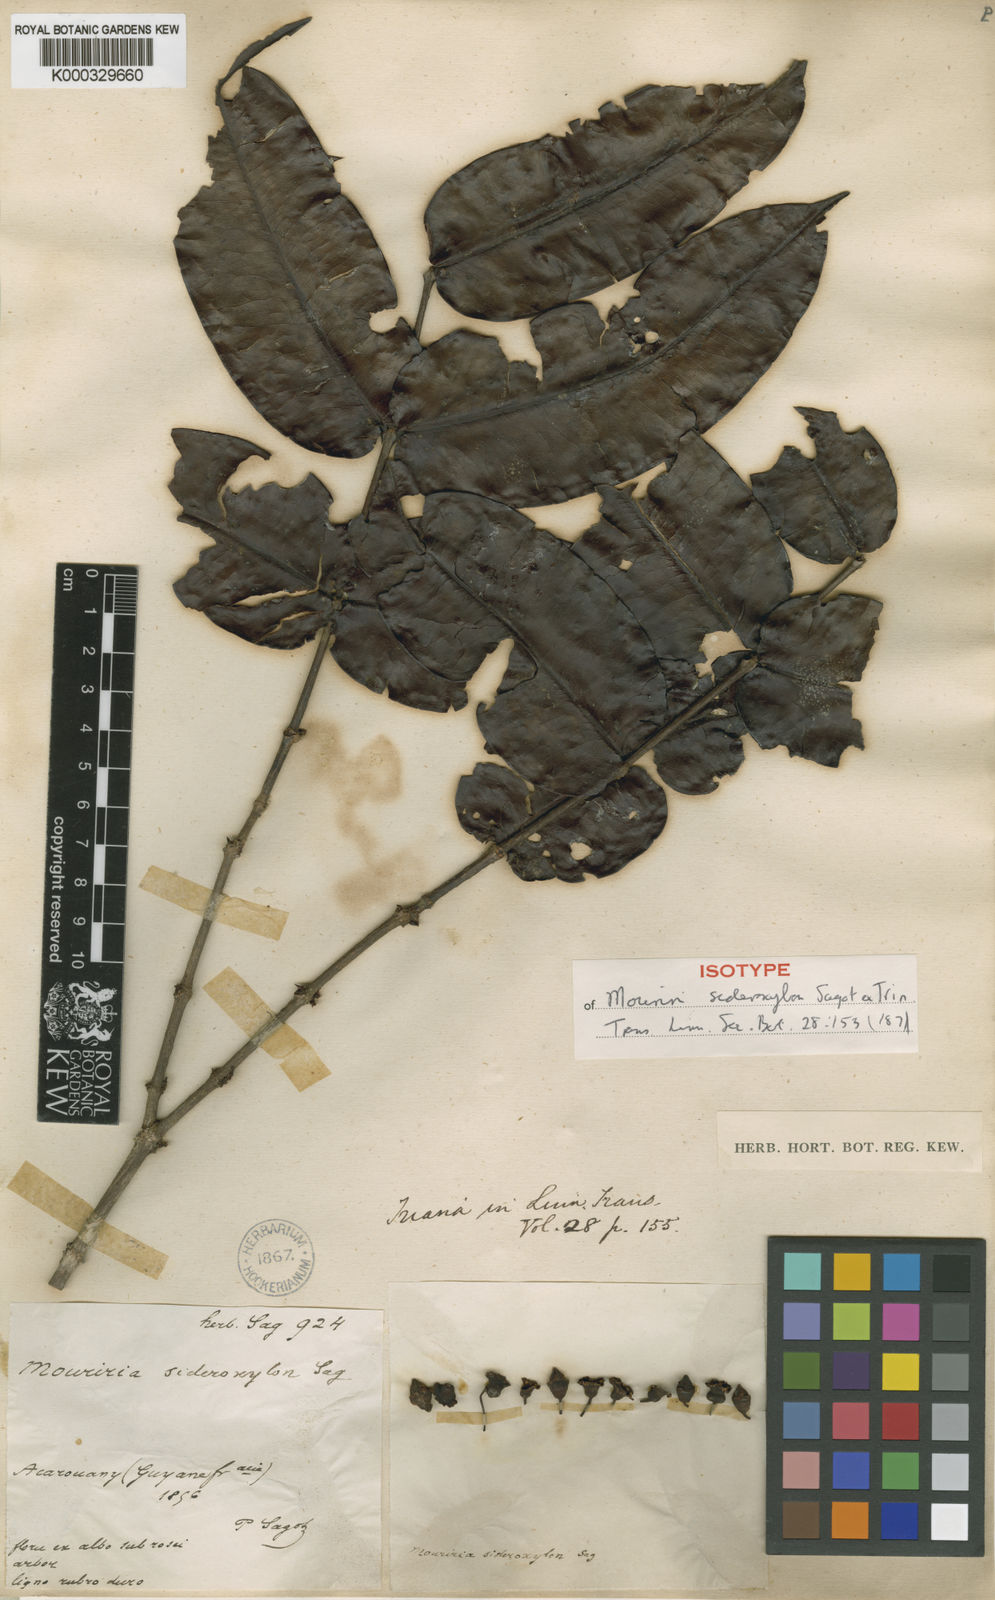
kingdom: Plantae
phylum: Tracheophyta
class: Magnoliopsida
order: Myrtales
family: Melastomataceae
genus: Mouriri
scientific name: Mouriri sideroxylon
